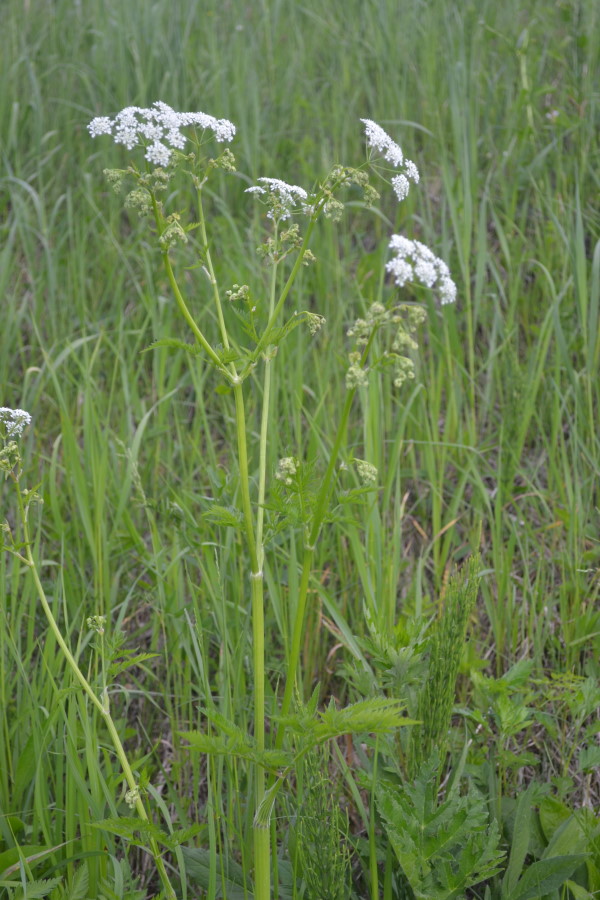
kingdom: Plantae
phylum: Tracheophyta
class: Magnoliopsida
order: Apiales
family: Apiaceae
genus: Anthriscus
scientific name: Anthriscus sylvestris
